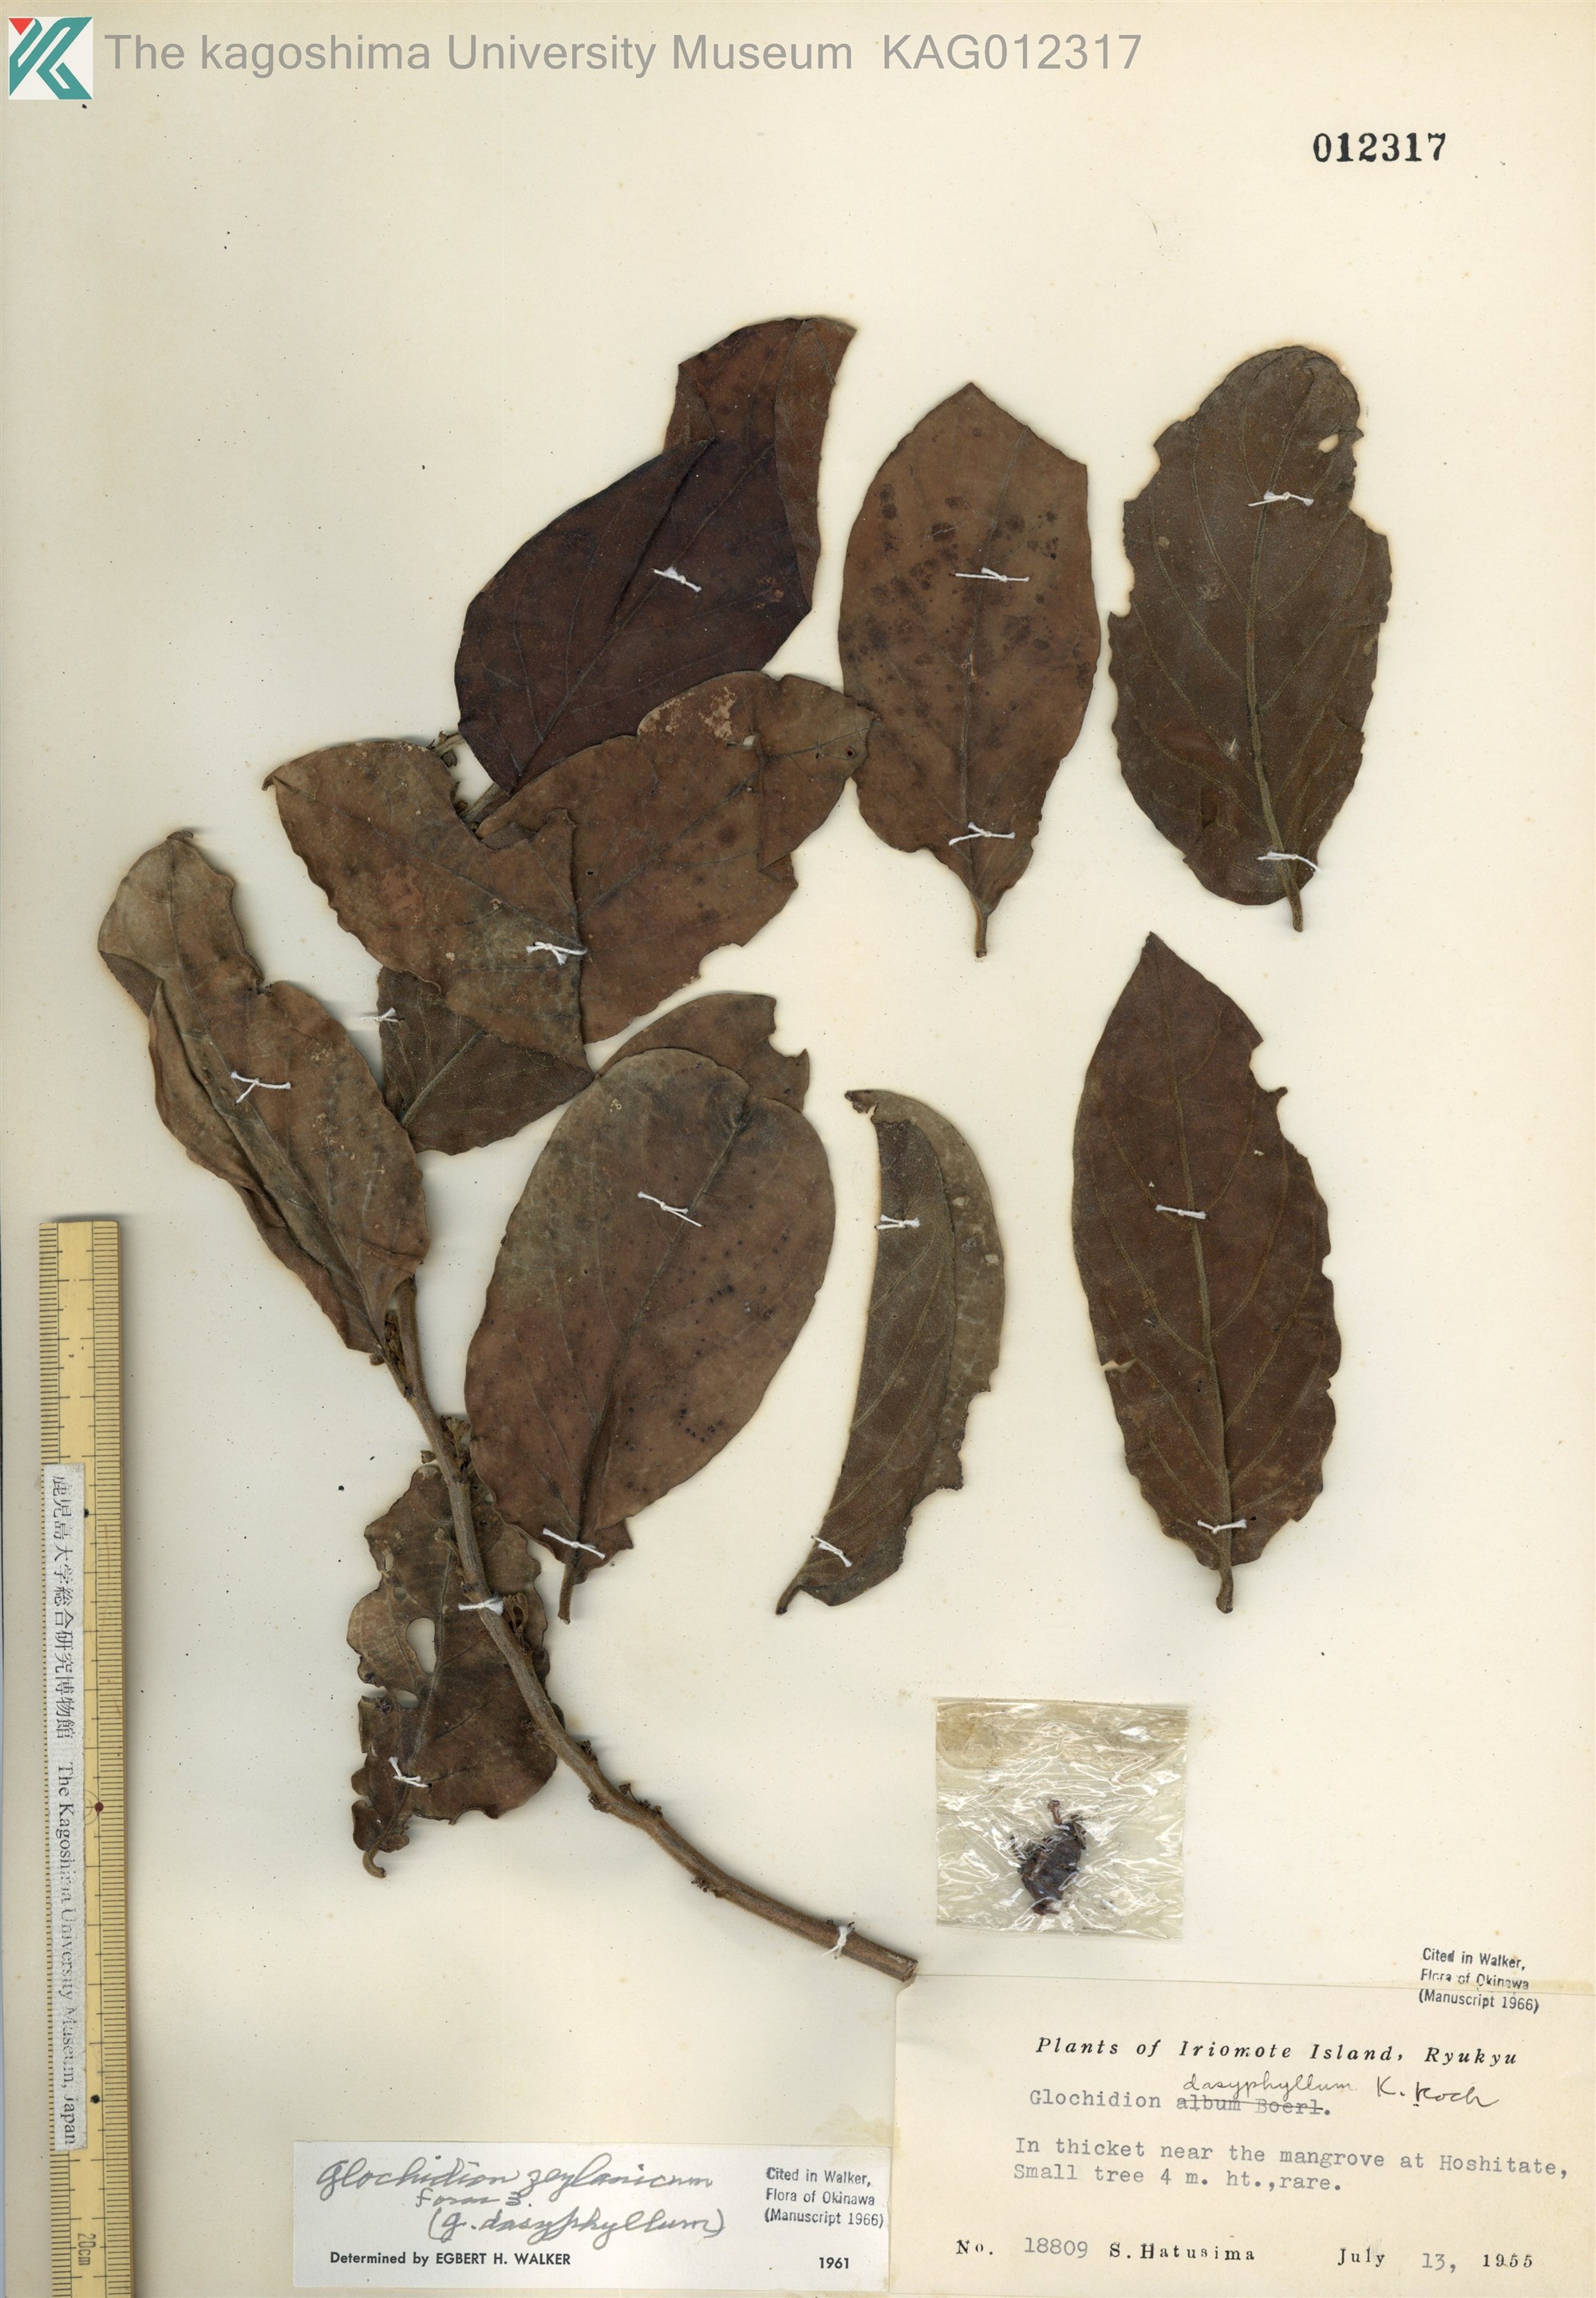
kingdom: Plantae
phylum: Tracheophyta
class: Magnoliopsida
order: Malpighiales
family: Phyllanthaceae
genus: Glochidion
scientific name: Glochidion zeylanicum
